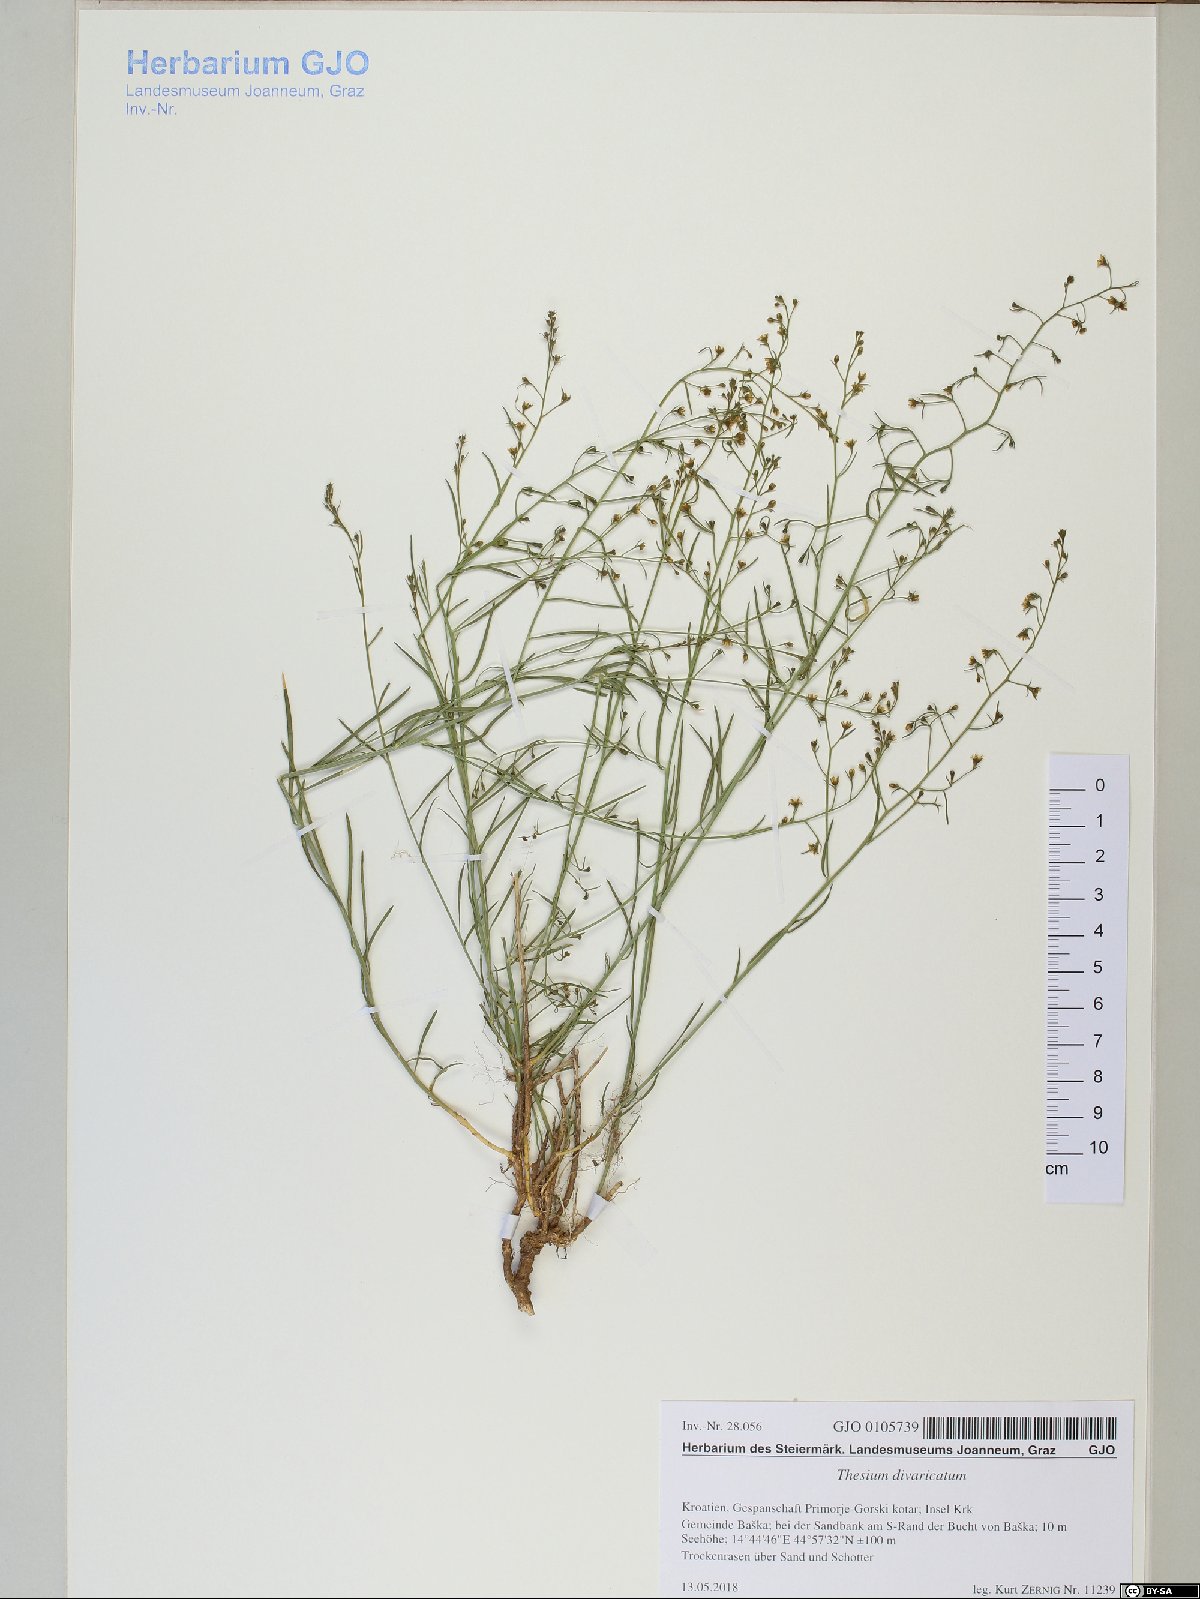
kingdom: Plantae
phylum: Tracheophyta
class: Magnoliopsida
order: Santalales
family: Thesiaceae
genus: Thesium
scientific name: Thesium divaricatum
